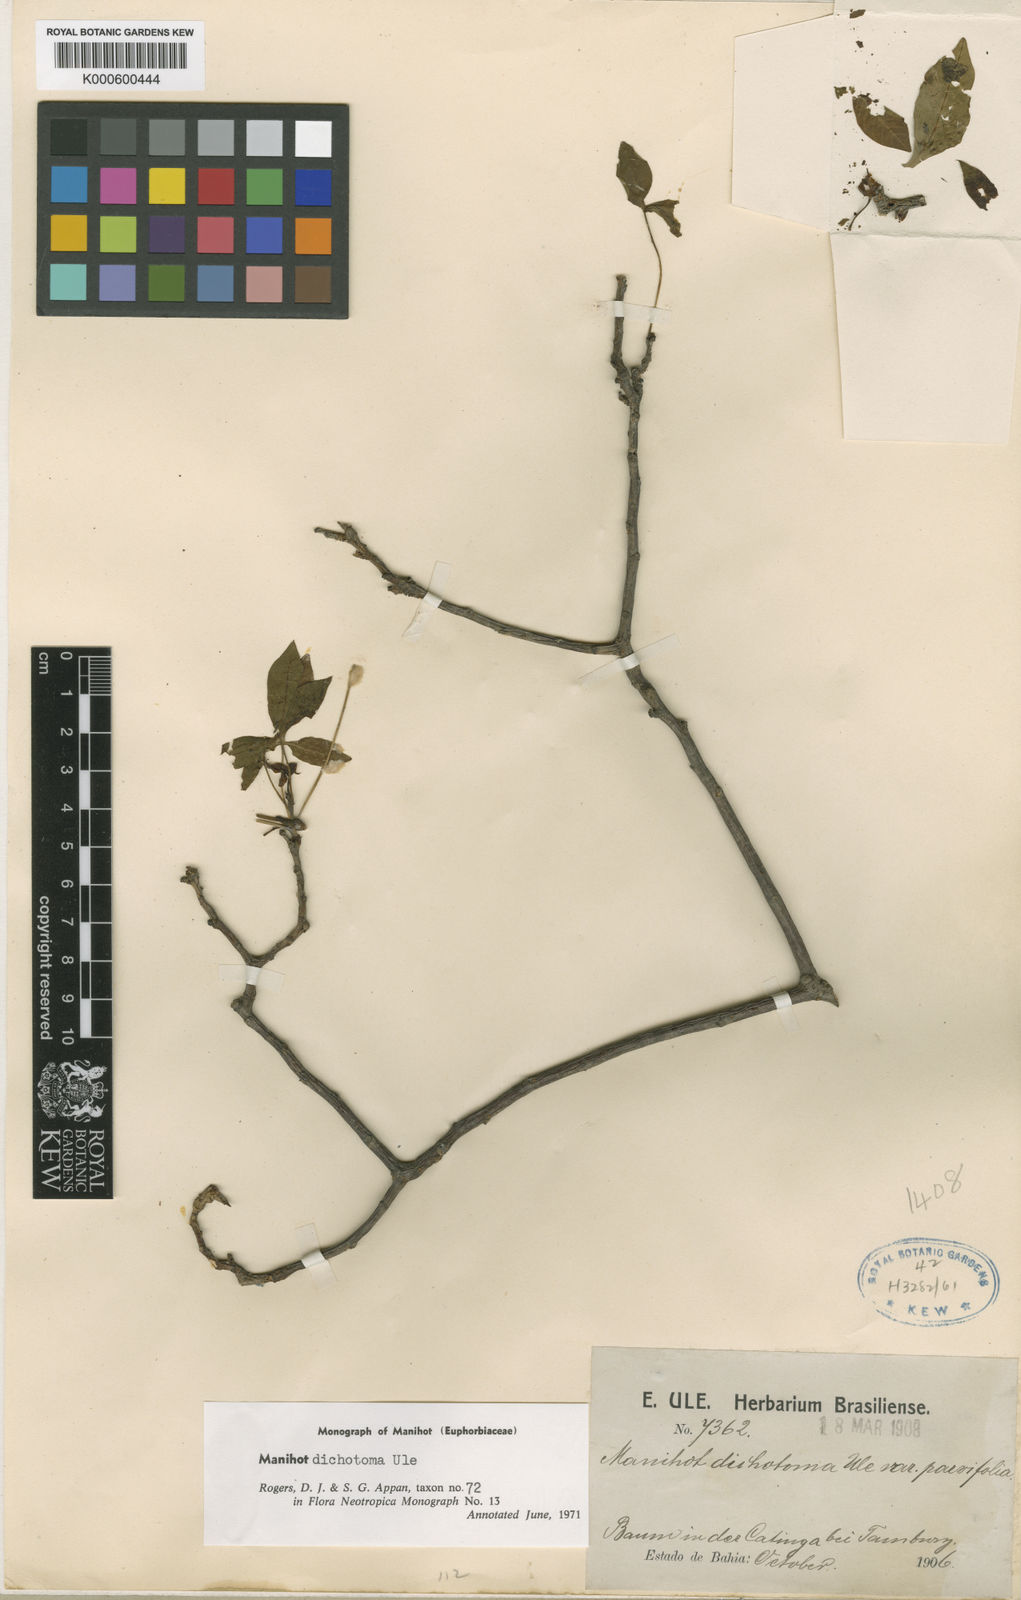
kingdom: Plantae
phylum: Tracheophyta
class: Magnoliopsida
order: Malpighiales
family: Euphorbiaceae
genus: Manihot
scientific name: Manihot dichotoma
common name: Jequie rubber tree
